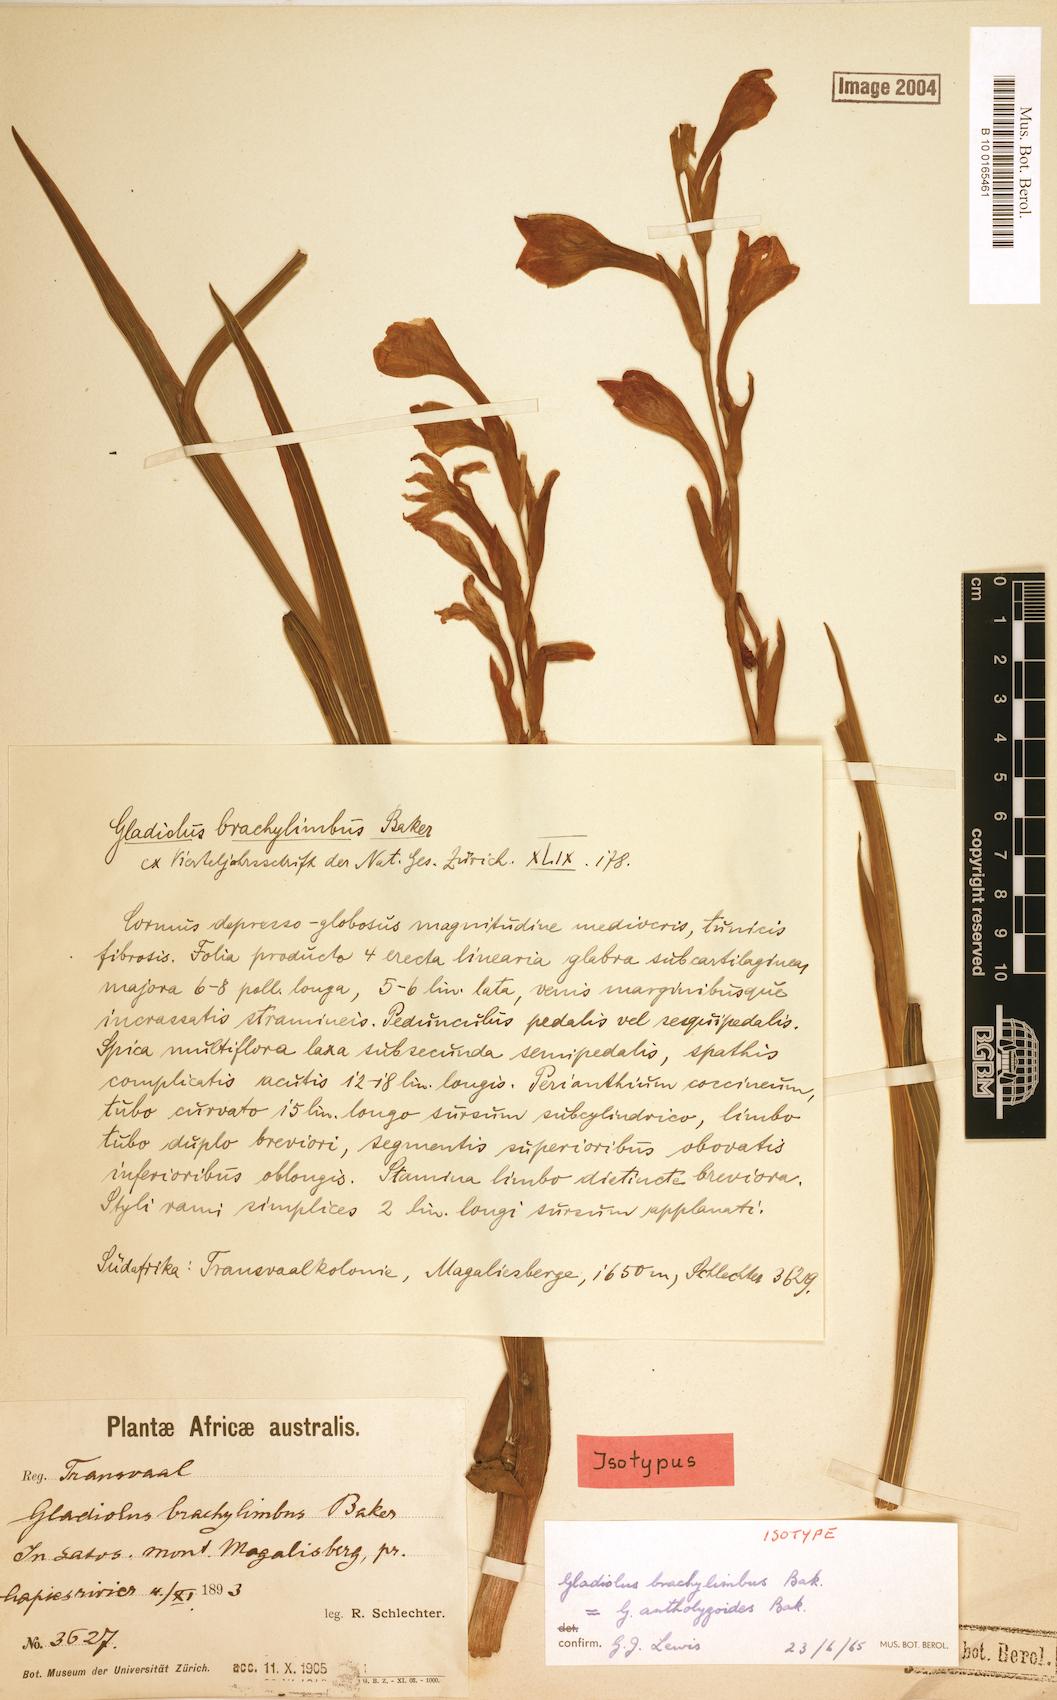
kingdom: Plantae
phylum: Tracheophyta
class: Liliopsida
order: Asparagales
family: Iridaceae
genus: Gladiolus
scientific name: Gladiolus antholyzoides
